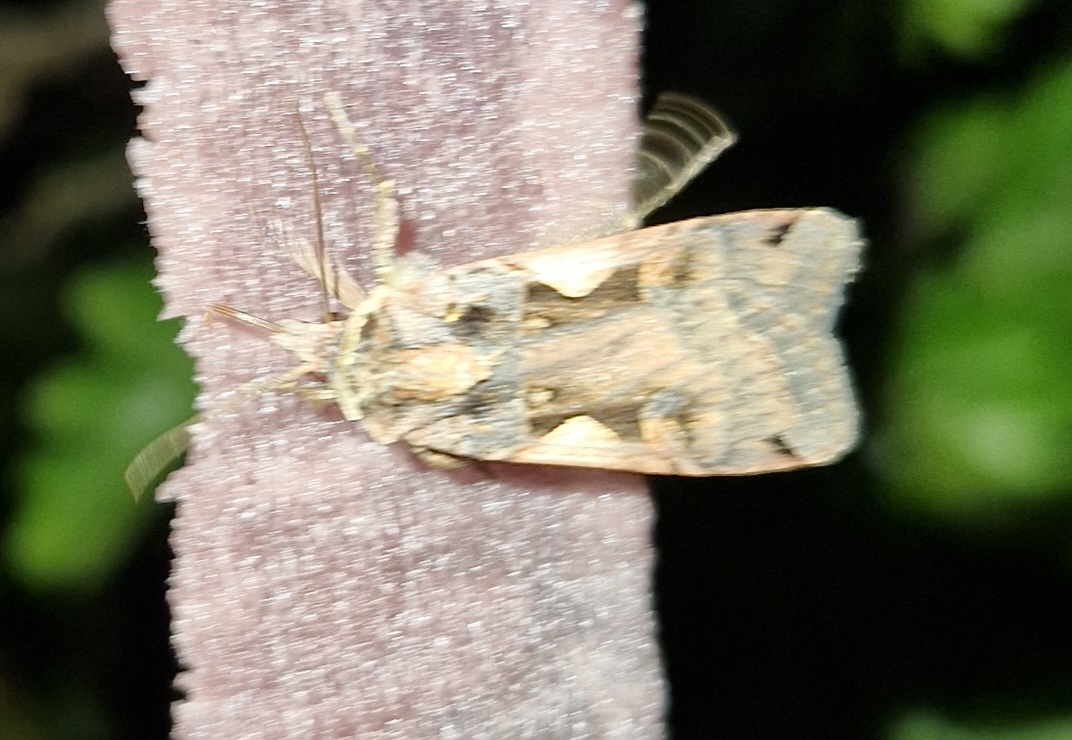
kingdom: Animalia
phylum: Arthropoda
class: Insecta
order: Lepidoptera
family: Noctuidae
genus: Xestia
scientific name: Xestia c-nigrum
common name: Det sorte c
